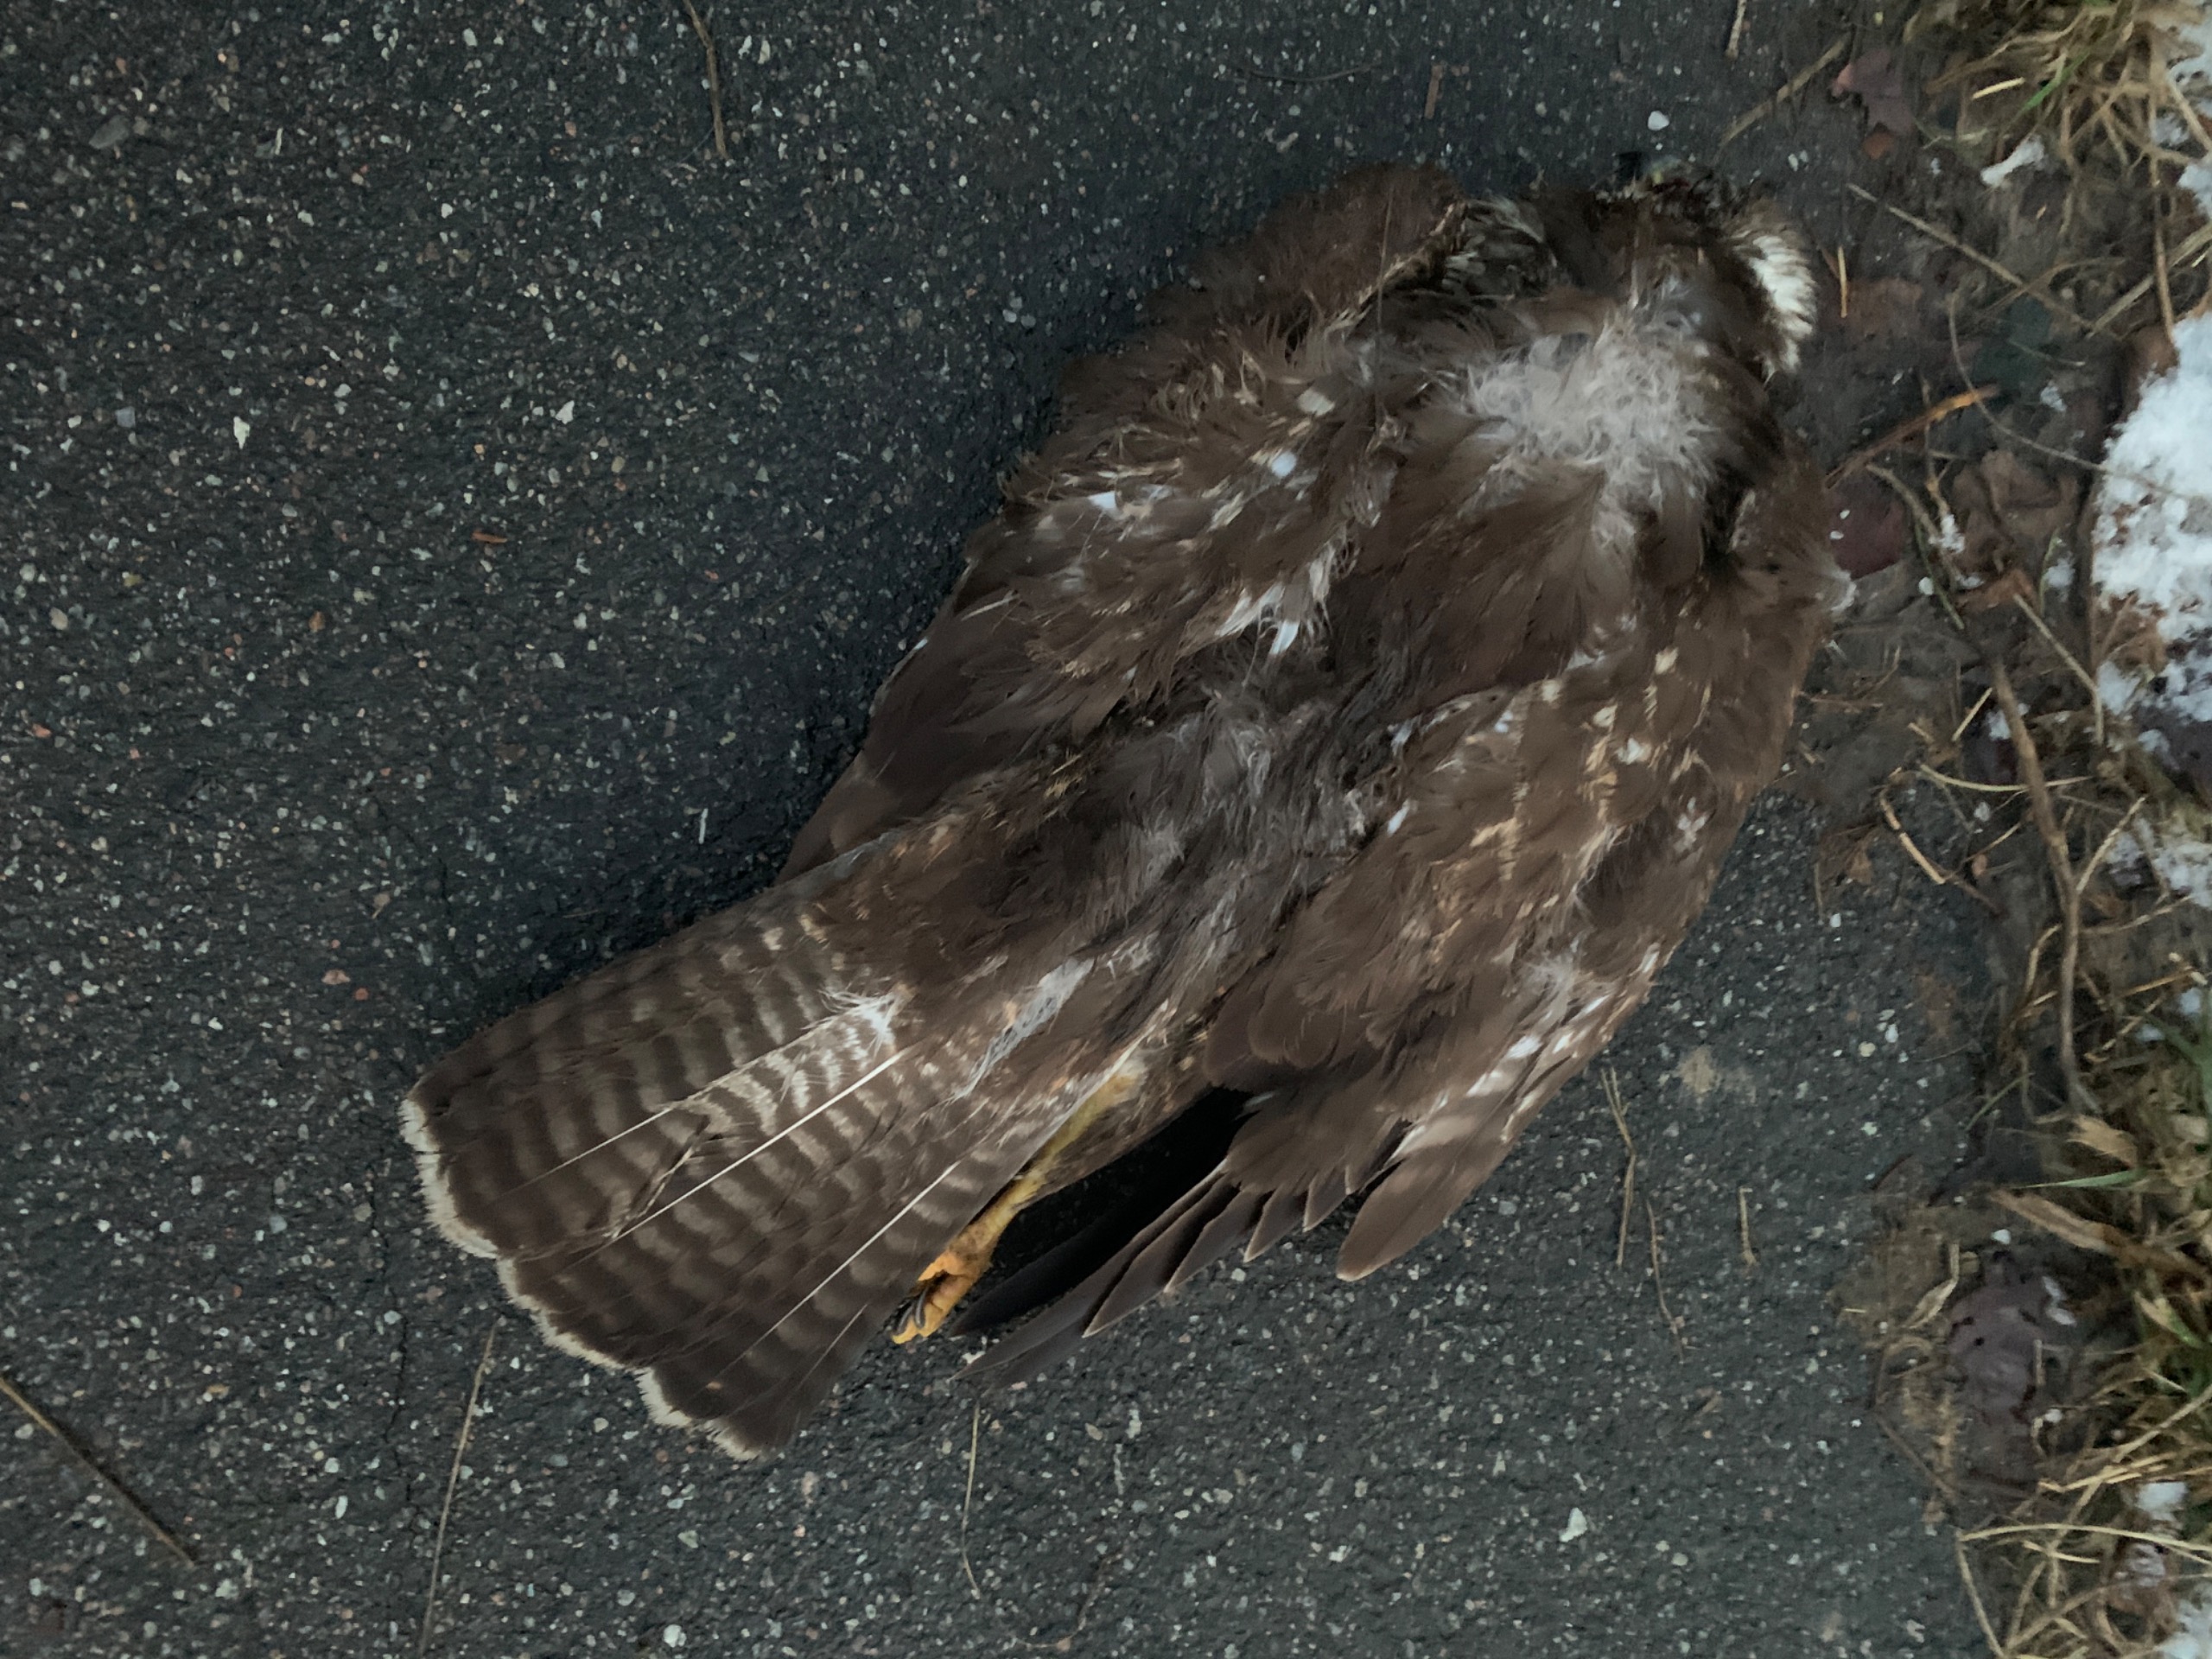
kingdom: Animalia
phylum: Chordata
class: Aves
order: Accipitriformes
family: Accipitridae
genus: Buteo
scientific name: Buteo buteo
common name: Musvåge
